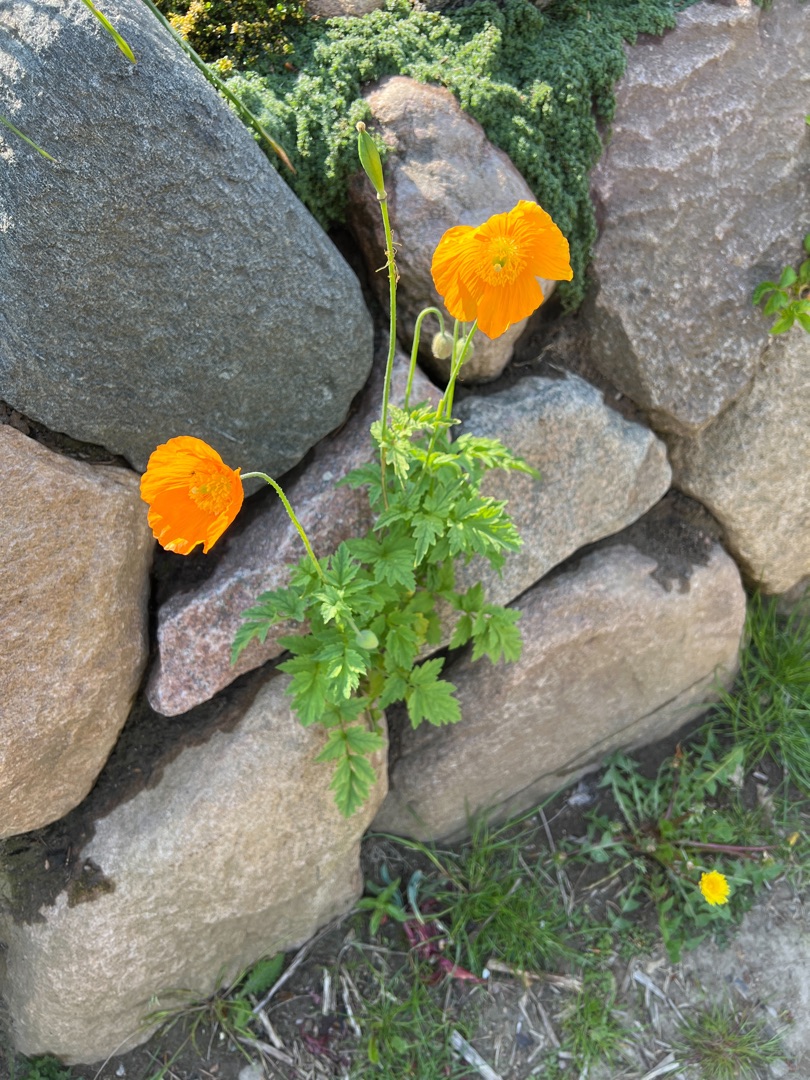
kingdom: Plantae
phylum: Tracheophyta
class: Magnoliopsida
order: Ranunculales
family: Papaveraceae
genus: Papaver
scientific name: Papaver cambricum
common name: Skov-valmue
